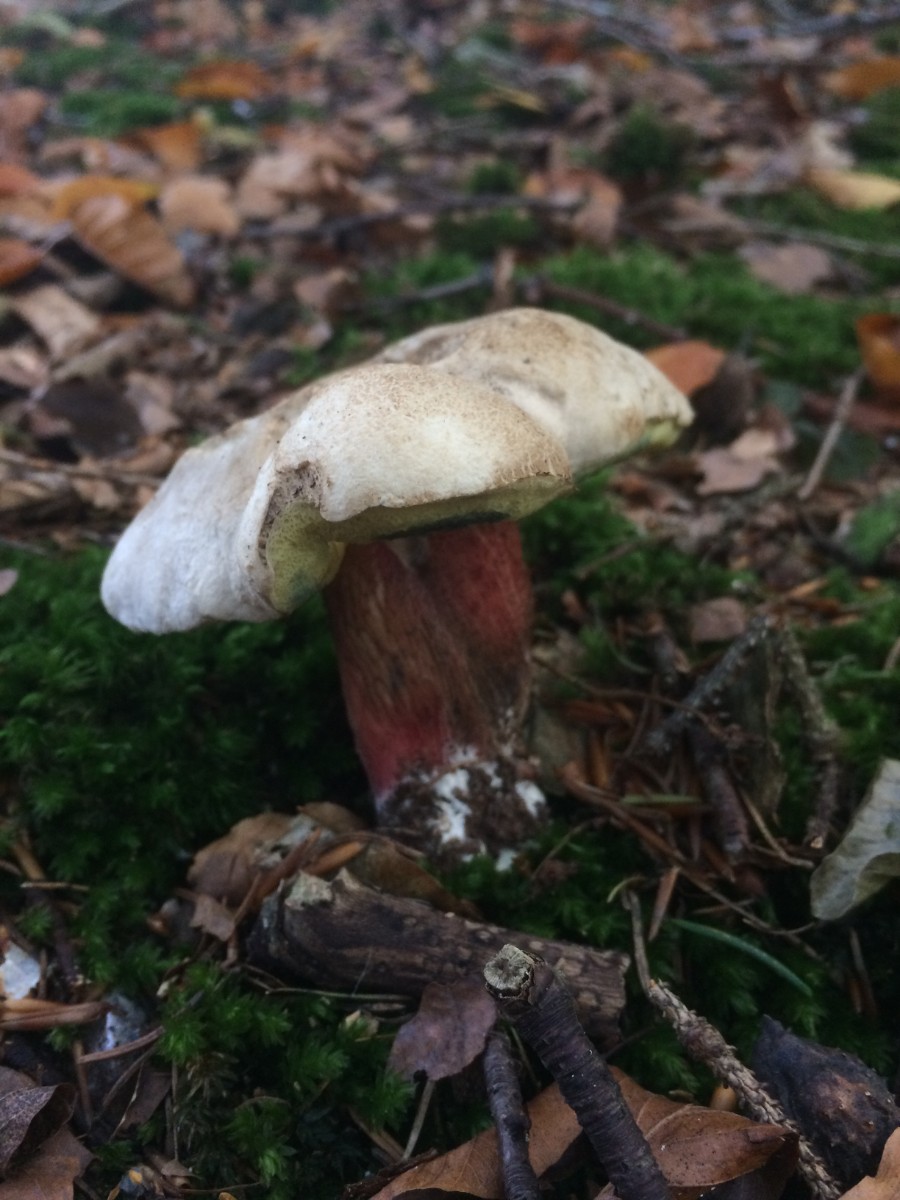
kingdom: Fungi
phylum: Basidiomycota
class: Agaricomycetes
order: Boletales
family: Boletaceae
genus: Caloboletus
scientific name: Caloboletus calopus
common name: skønfodet rørhat
